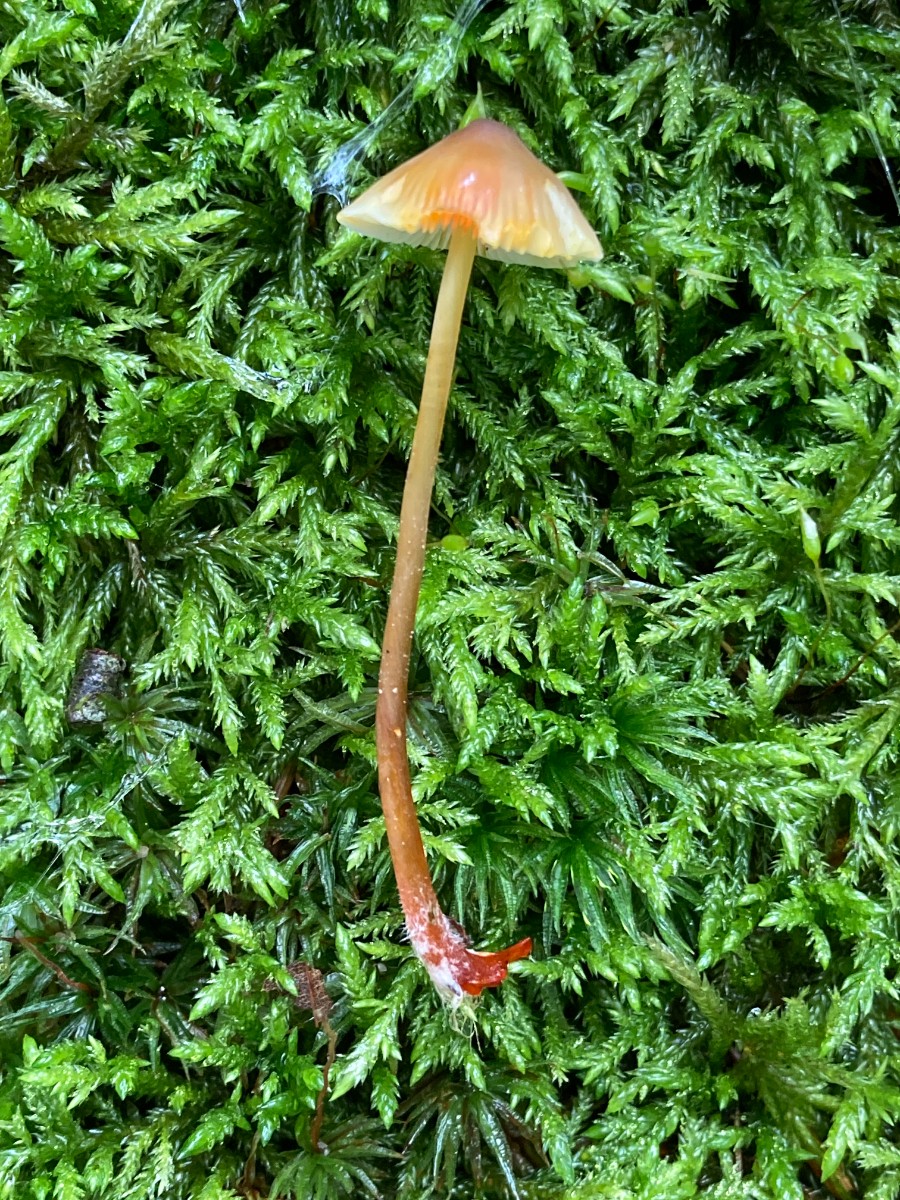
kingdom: Fungi
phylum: Basidiomycota
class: Agaricomycetes
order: Agaricales
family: Mycenaceae
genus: Mycena
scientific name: Mycena crocata
